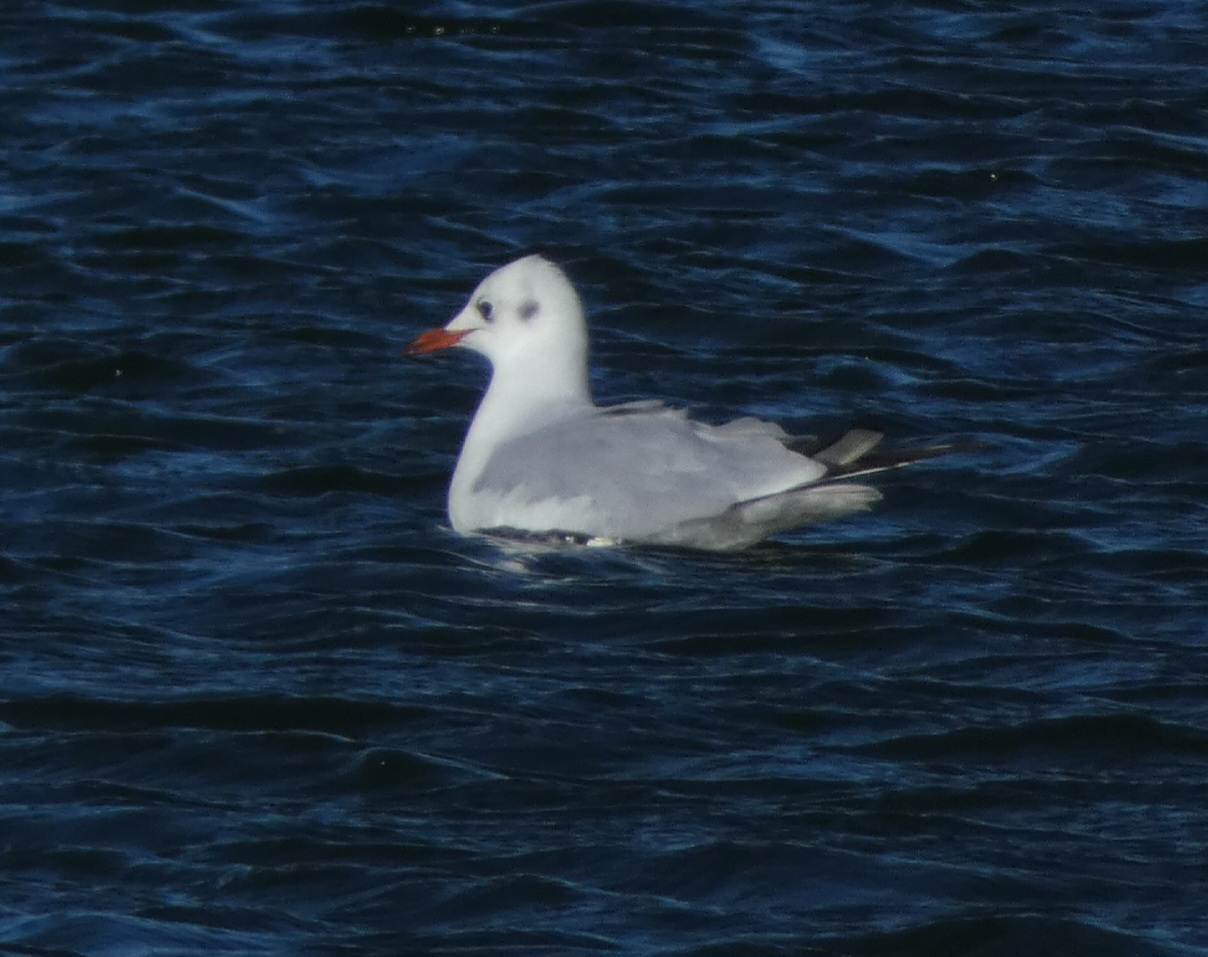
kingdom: Animalia
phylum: Chordata
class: Aves
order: Charadriiformes
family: Laridae
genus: Chroicocephalus
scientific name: Chroicocephalus ridibundus
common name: Hættemåge
